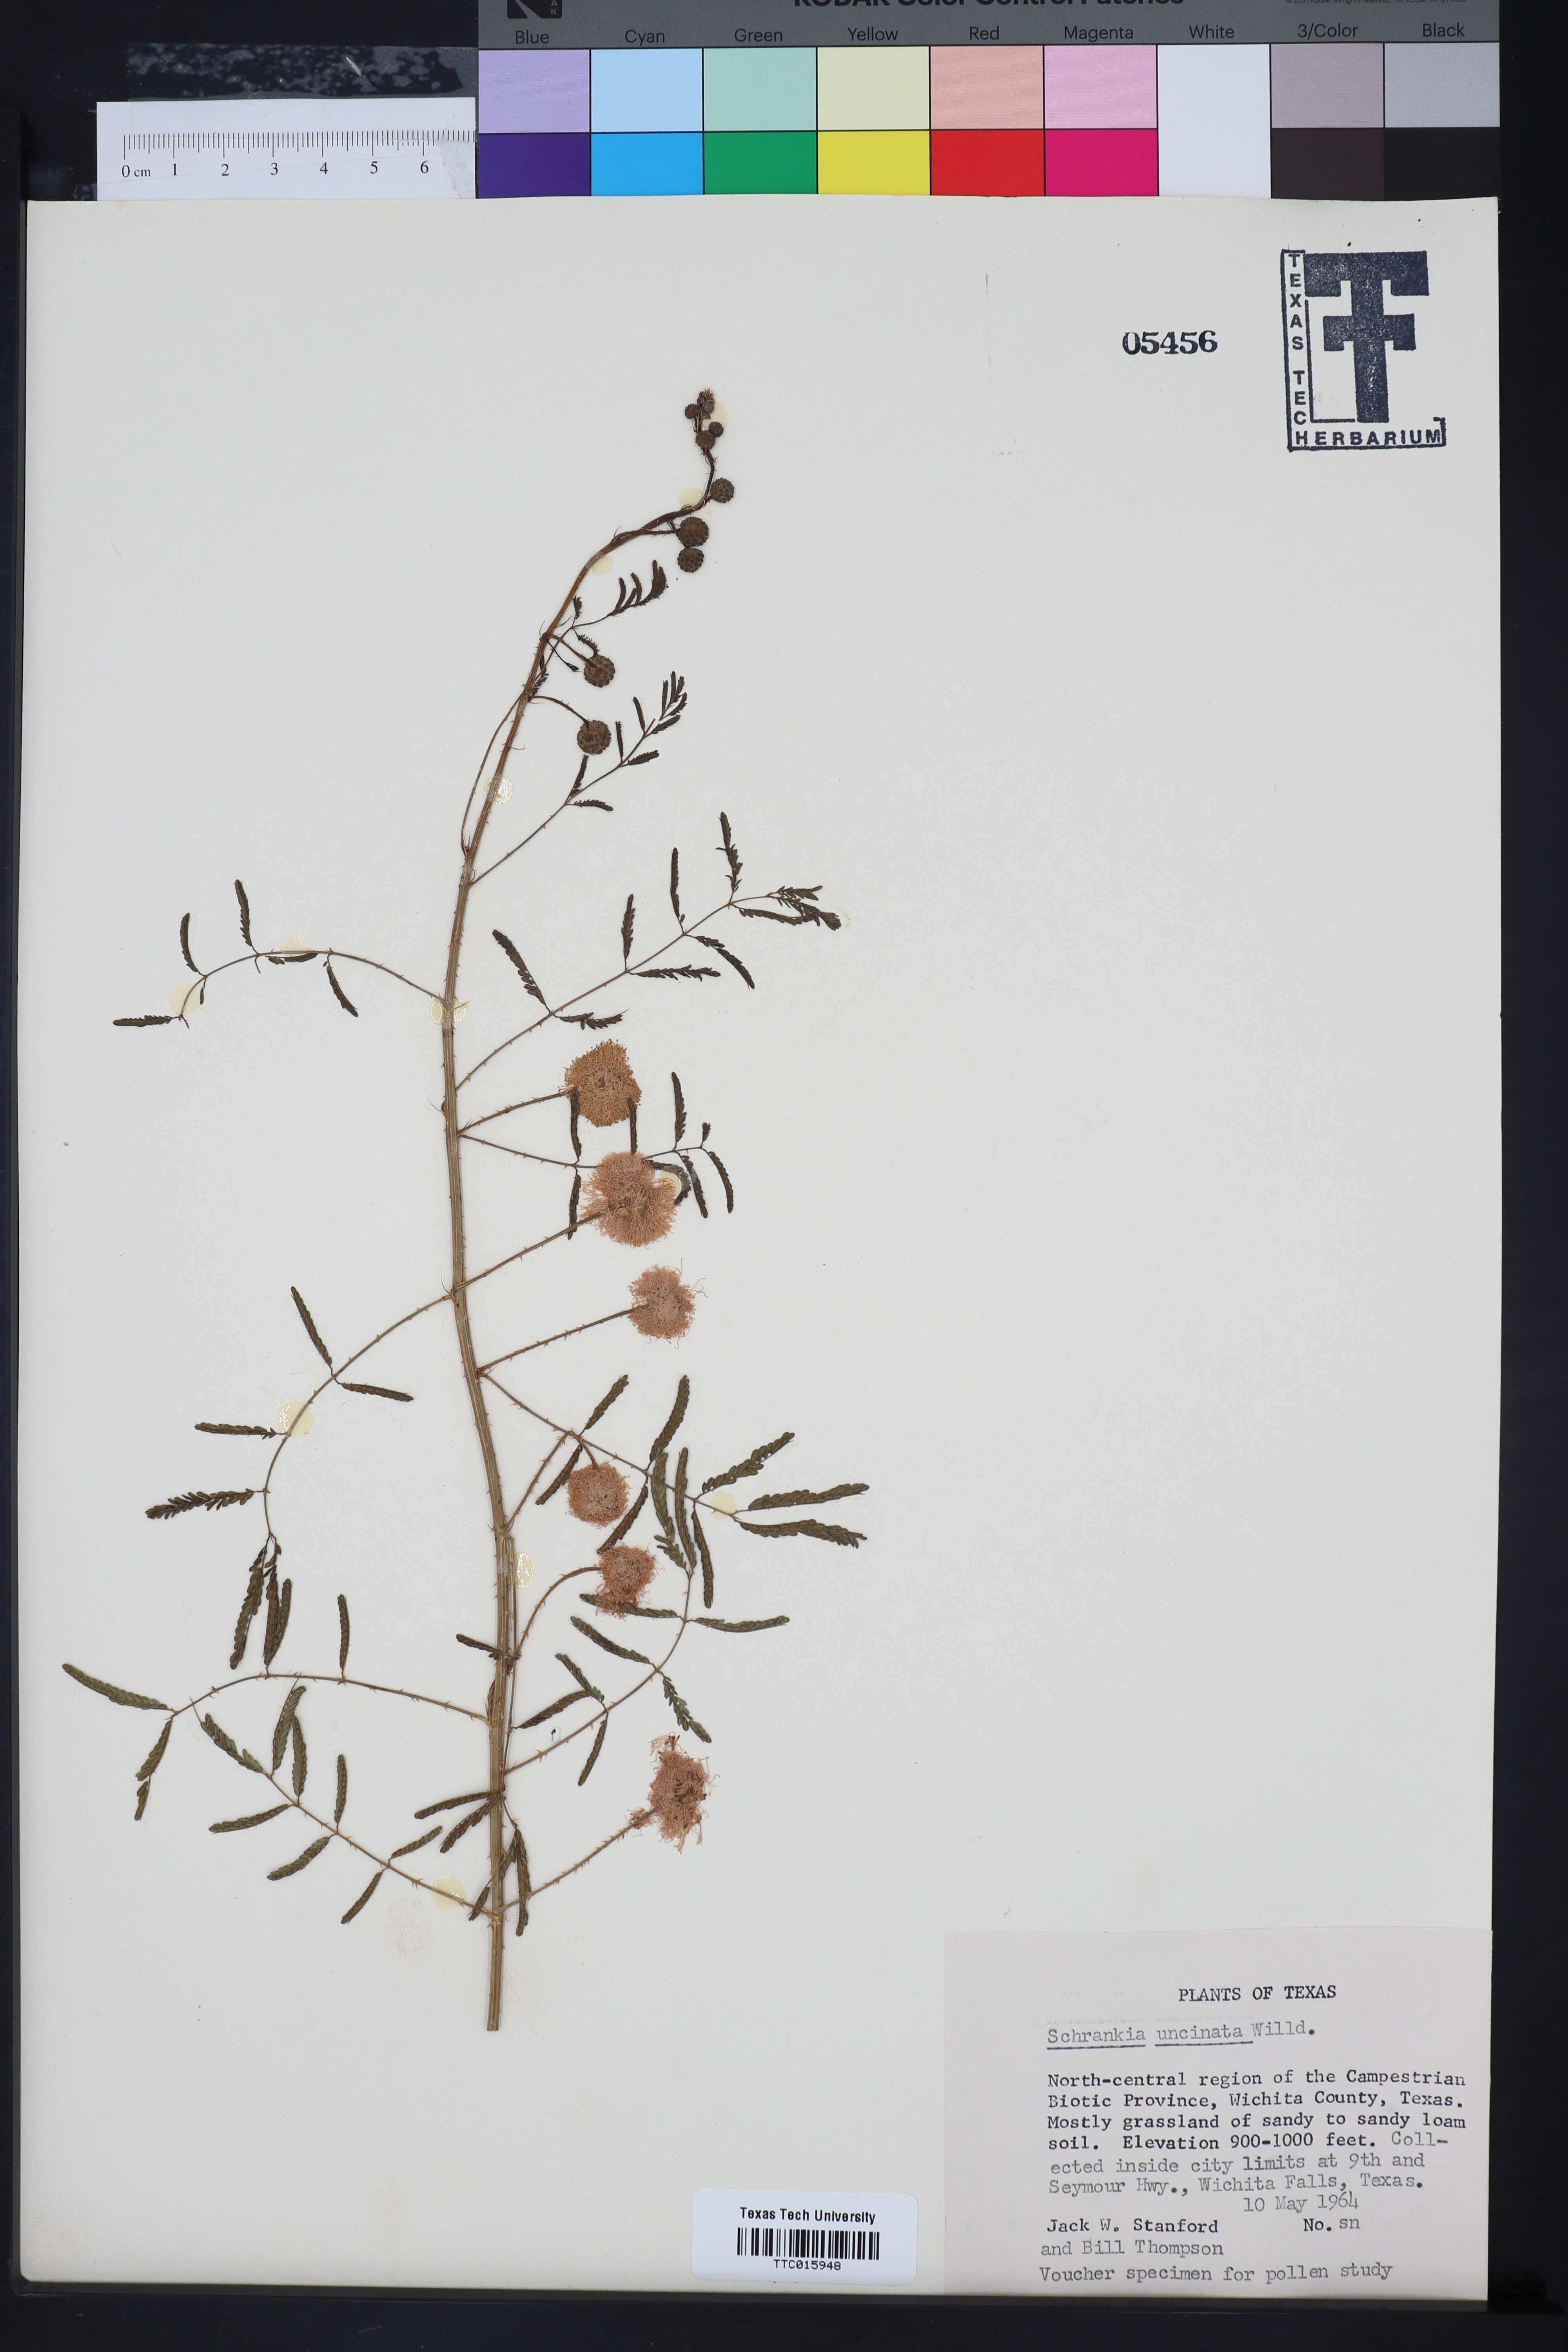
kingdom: Plantae
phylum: Tracheophyta
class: Magnoliopsida
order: Fabales
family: Fabaceae
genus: Mimosa
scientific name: Mimosa quadrivalvis
